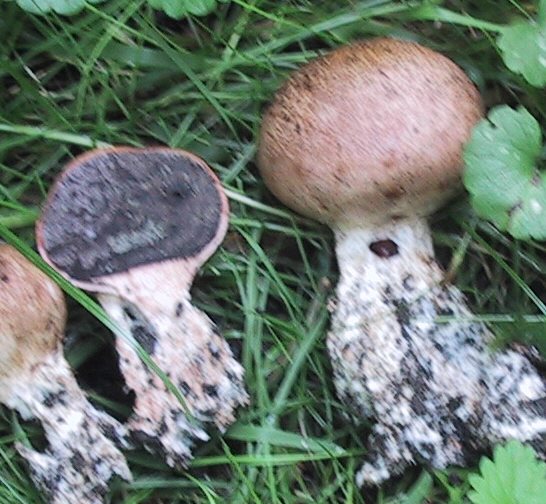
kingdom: Fungi
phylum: Basidiomycota
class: Agaricomycetes
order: Boletales
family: Sclerodermataceae
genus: Scleroderma
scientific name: Scleroderma verrucosum
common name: stilket bruskbold
